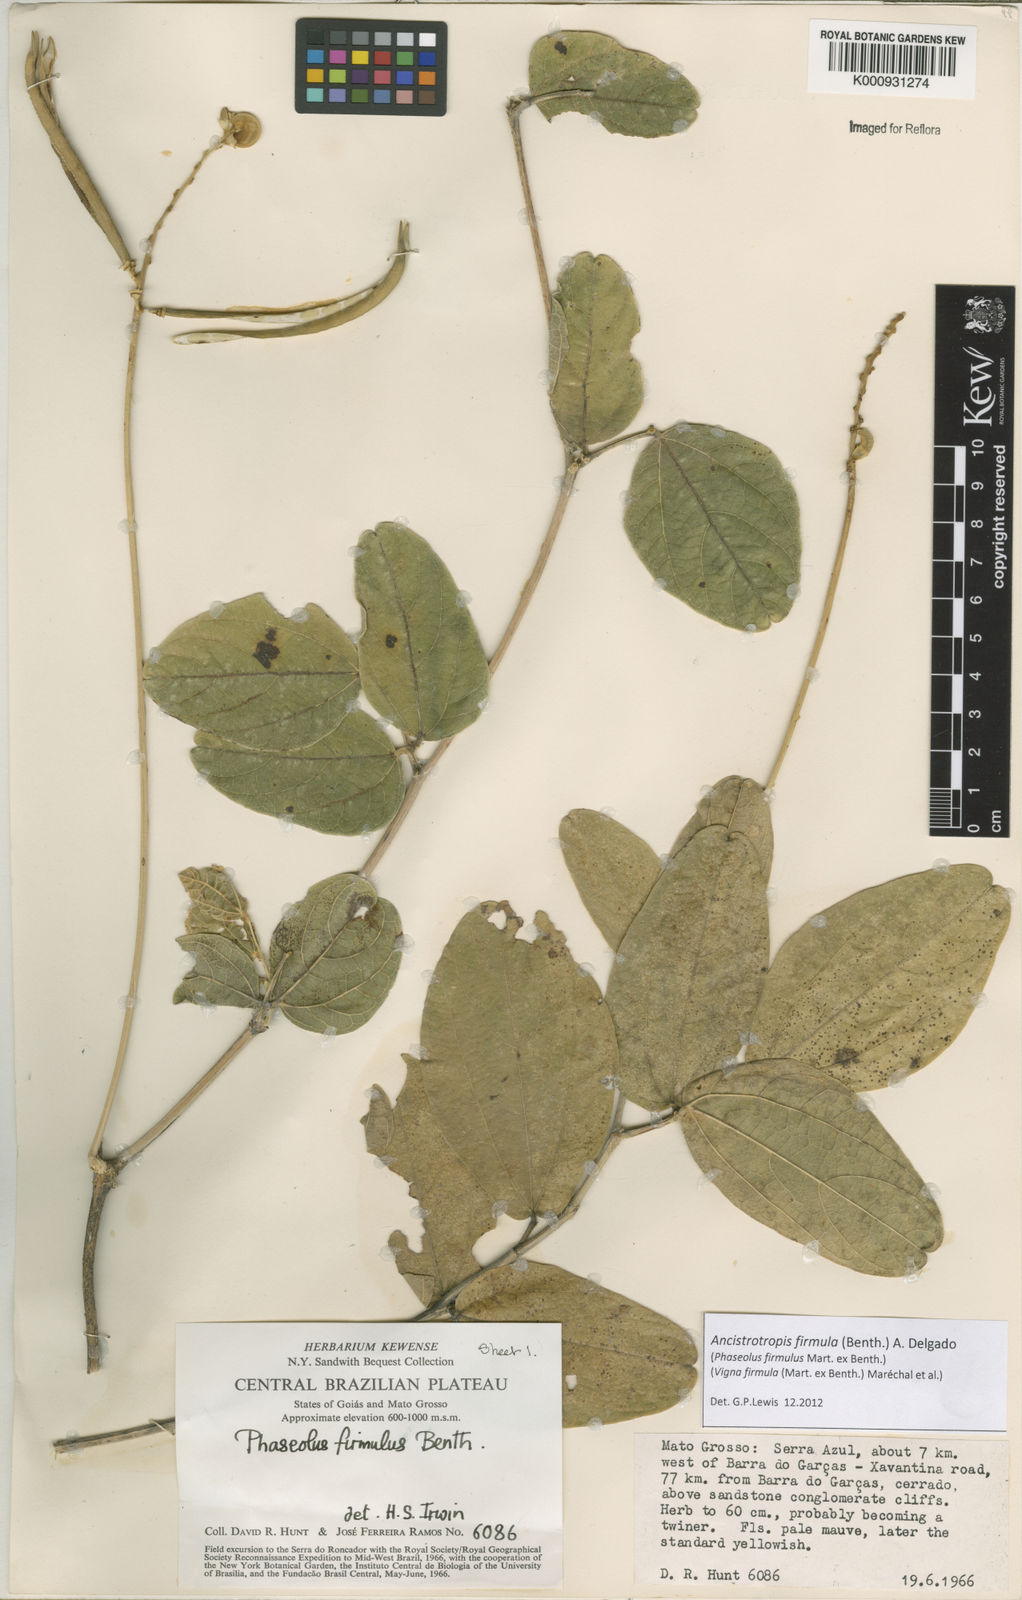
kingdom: Plantae
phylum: Tracheophyta
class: Magnoliopsida
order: Fabales
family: Fabaceae
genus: Ancistrotropis
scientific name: Ancistrotropis firmula
